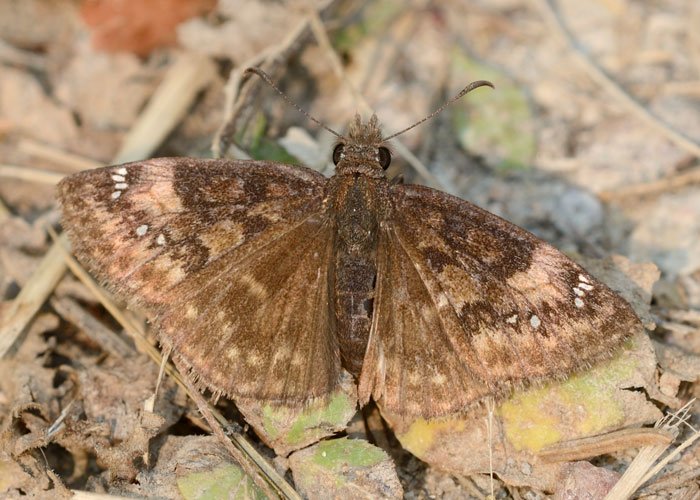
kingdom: Animalia
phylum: Arthropoda
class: Insecta
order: Lepidoptera
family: Hesperiidae
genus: Gesta
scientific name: Gesta
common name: Columbine Duskywing
